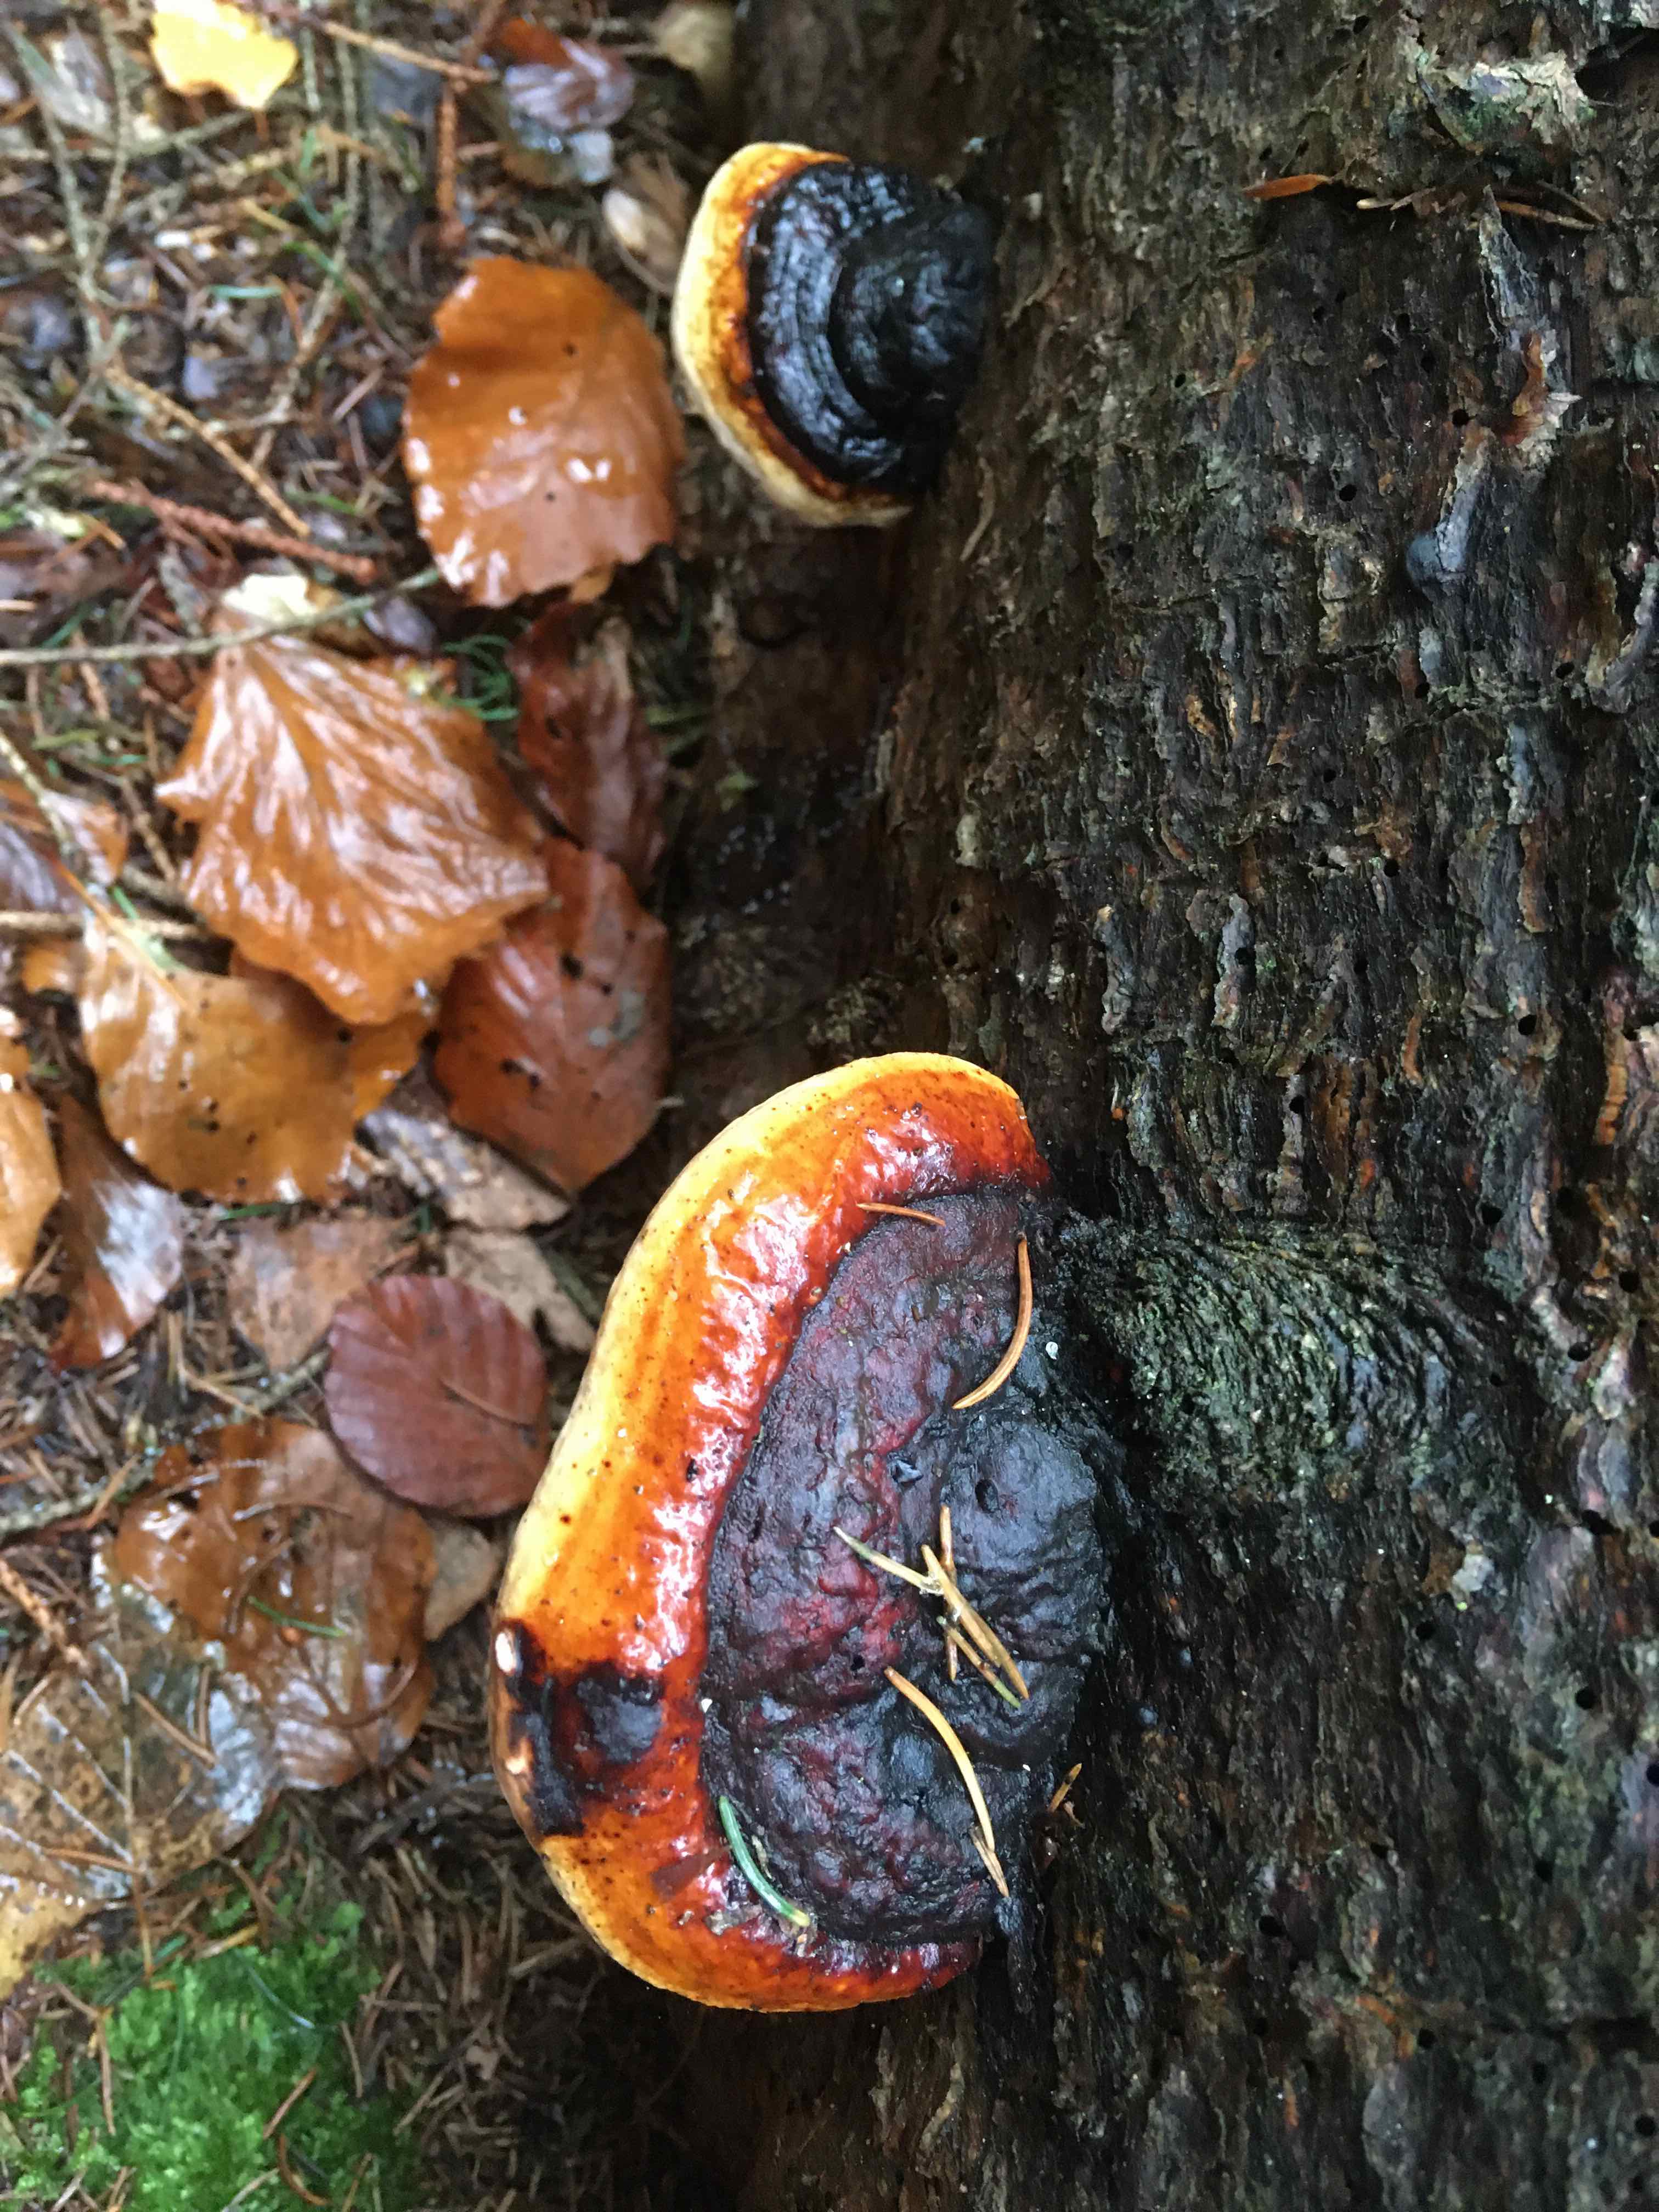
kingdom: Fungi
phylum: Basidiomycota
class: Agaricomycetes
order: Polyporales
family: Fomitopsidaceae
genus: Fomitopsis
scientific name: Fomitopsis pinicola
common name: randbæltet hovporesvamp
